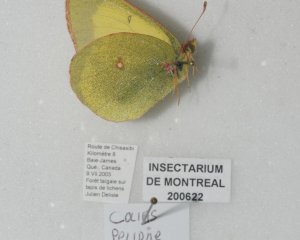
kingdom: Animalia
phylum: Arthropoda
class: Insecta
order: Lepidoptera
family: Pieridae
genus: Colias
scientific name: Colias pelidne
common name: Pelidne Sulphur
